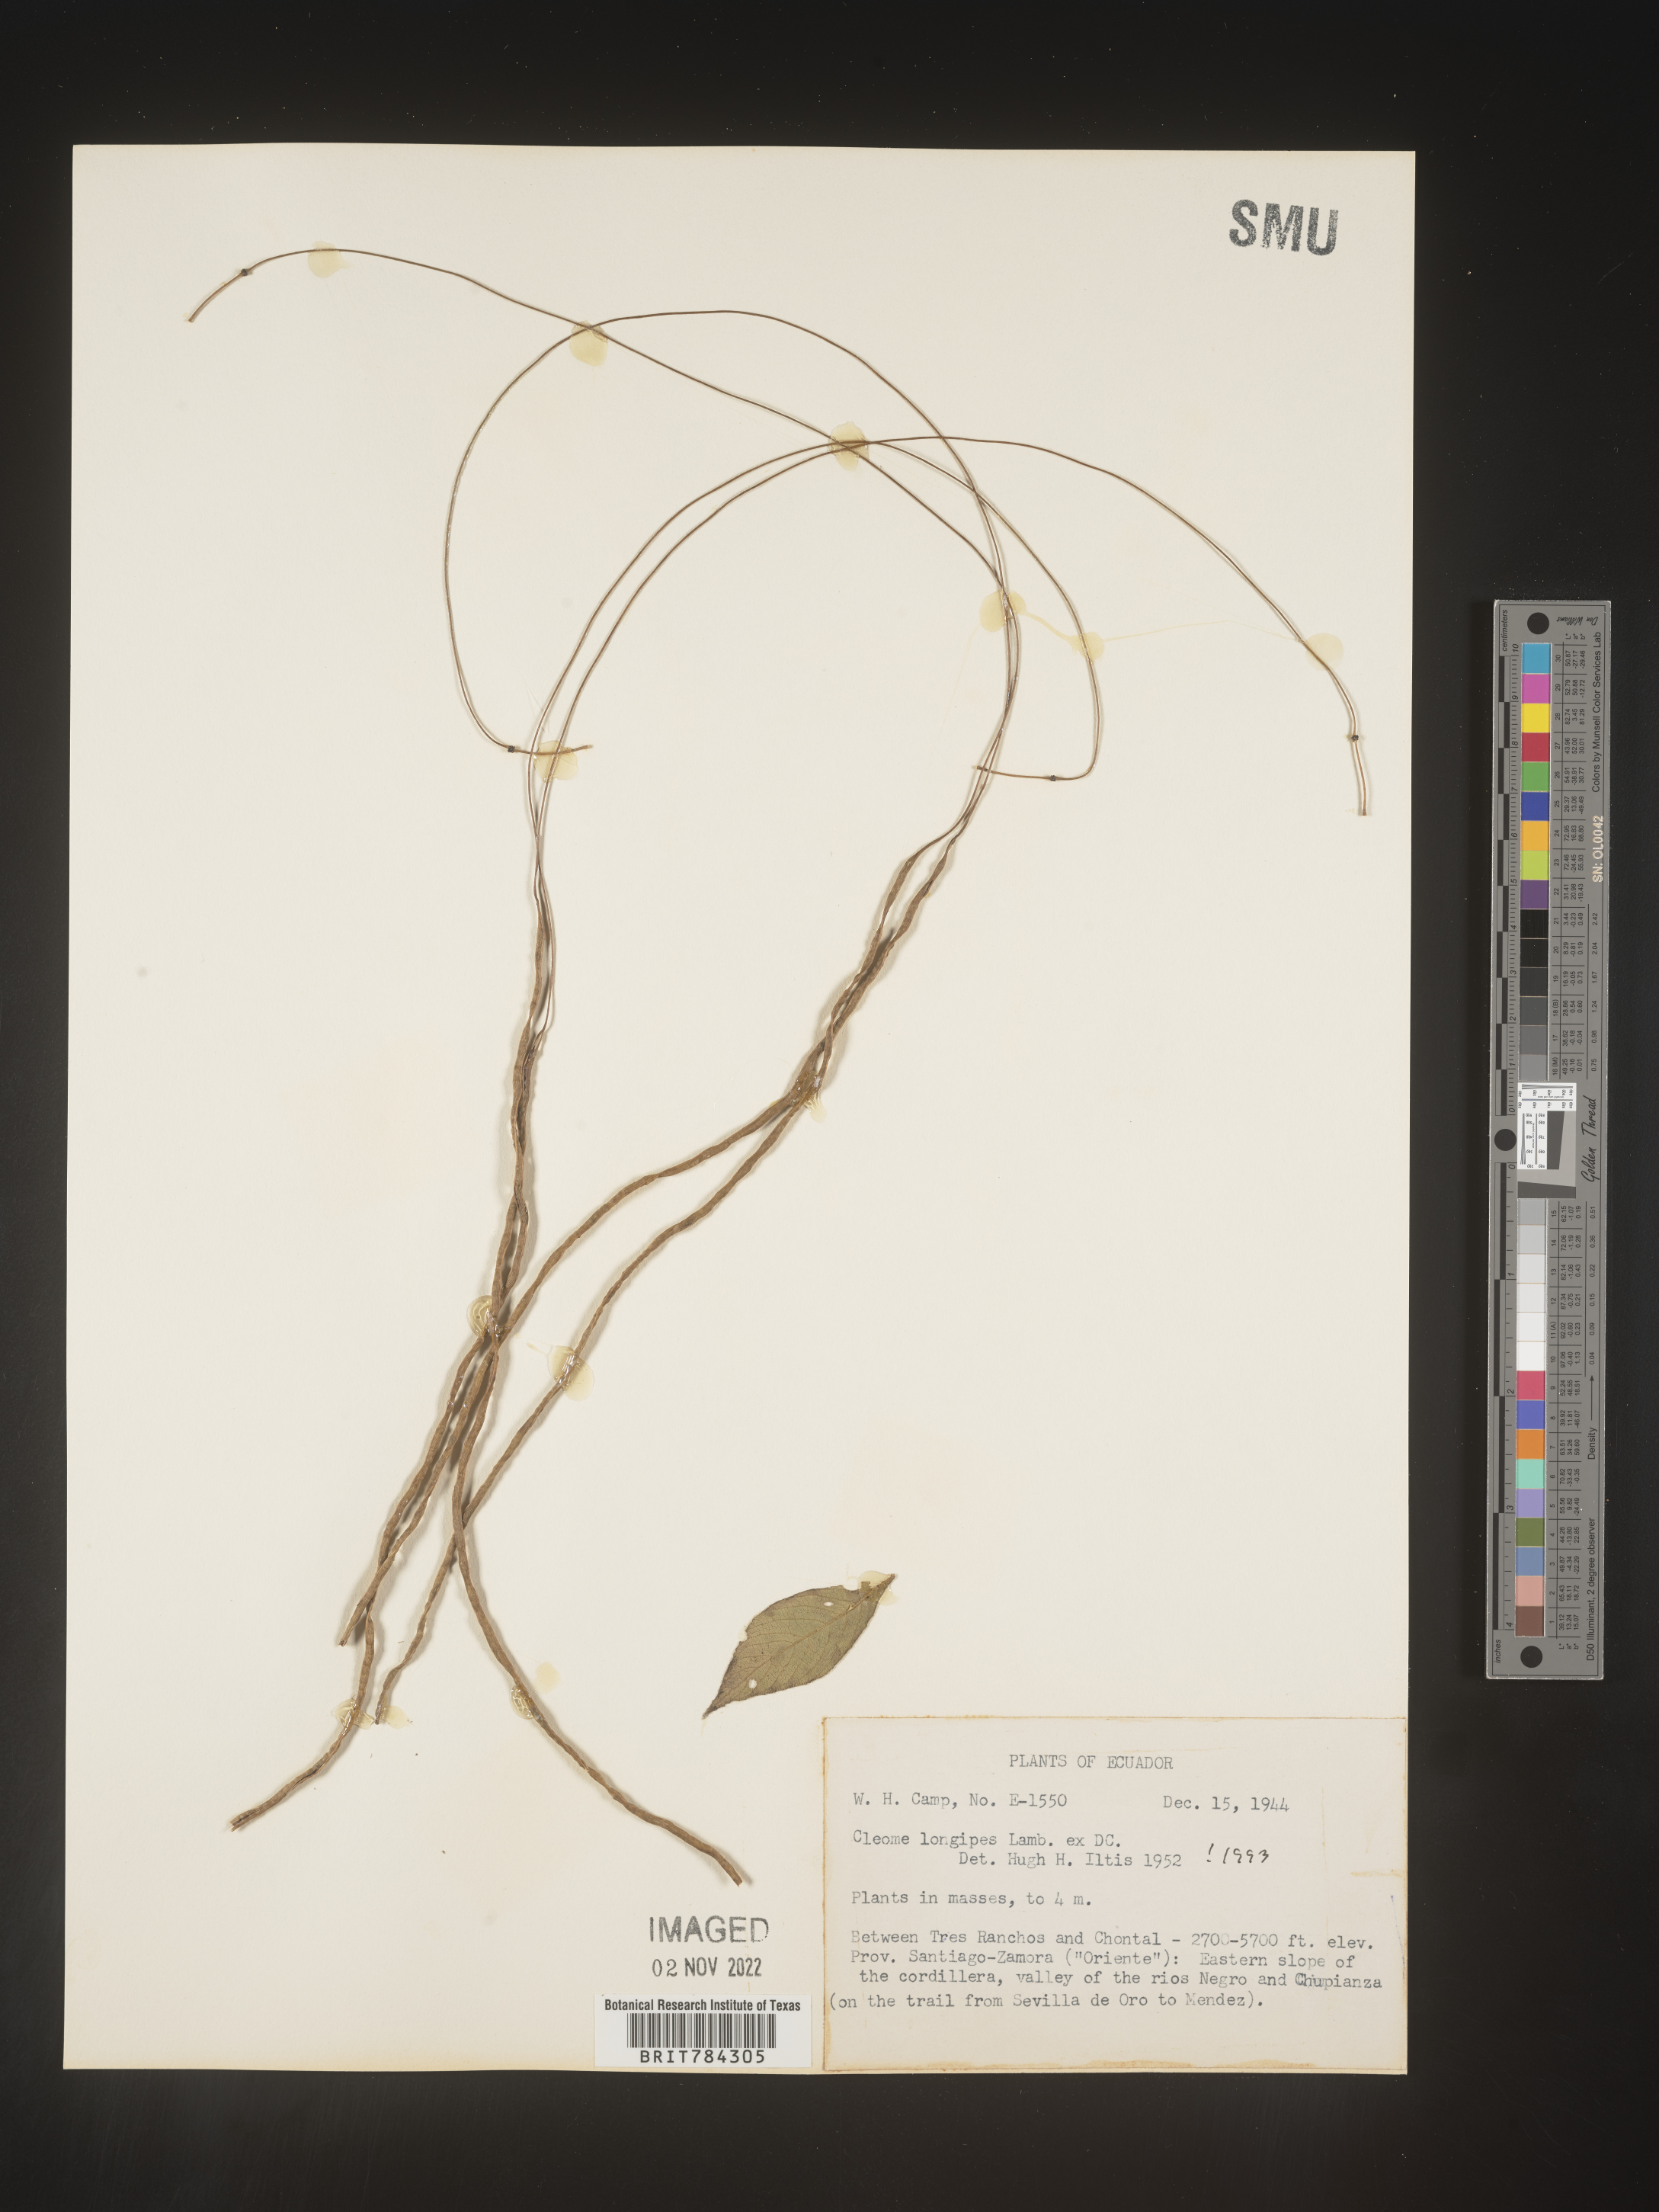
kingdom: Plantae
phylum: Tracheophyta
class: Magnoliopsida
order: Brassicales
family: Cleomaceae
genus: Cleome
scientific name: Cleome
